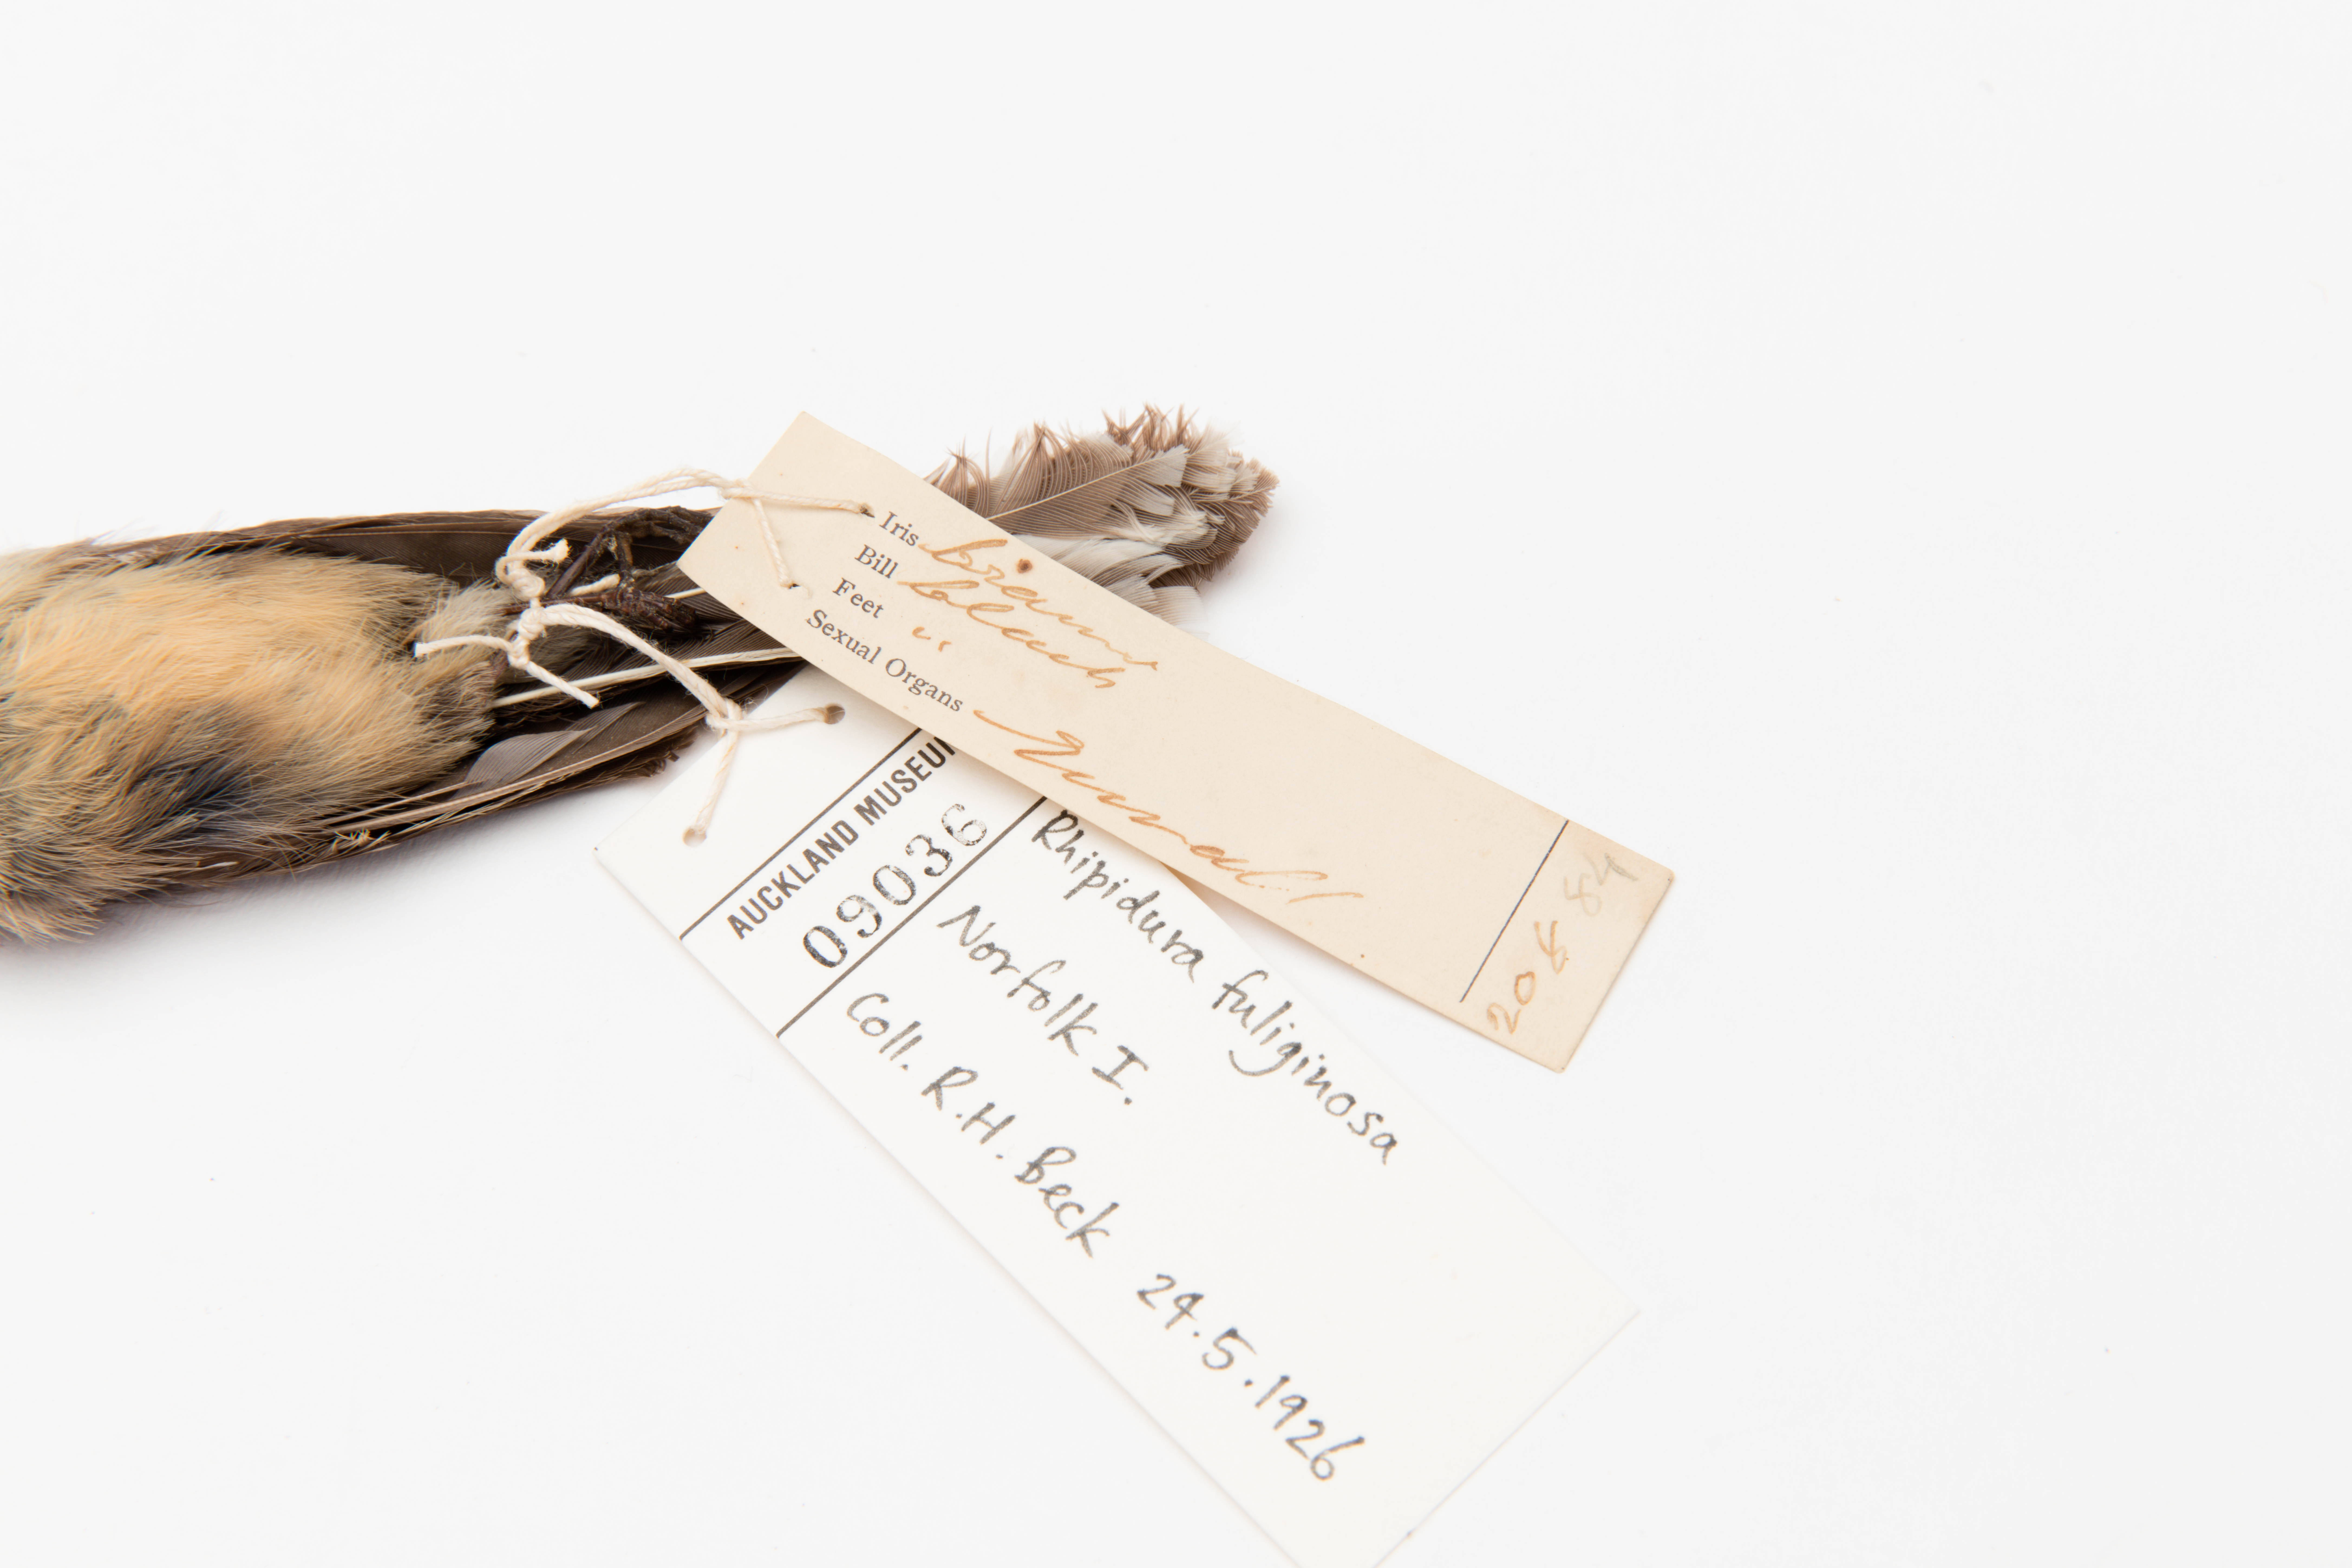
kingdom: Animalia
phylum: Chordata
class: Aves
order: Passeriformes
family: Rhipiduridae
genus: Rhipidura
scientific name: Rhipidura fuliginosa
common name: New zealand fantail
